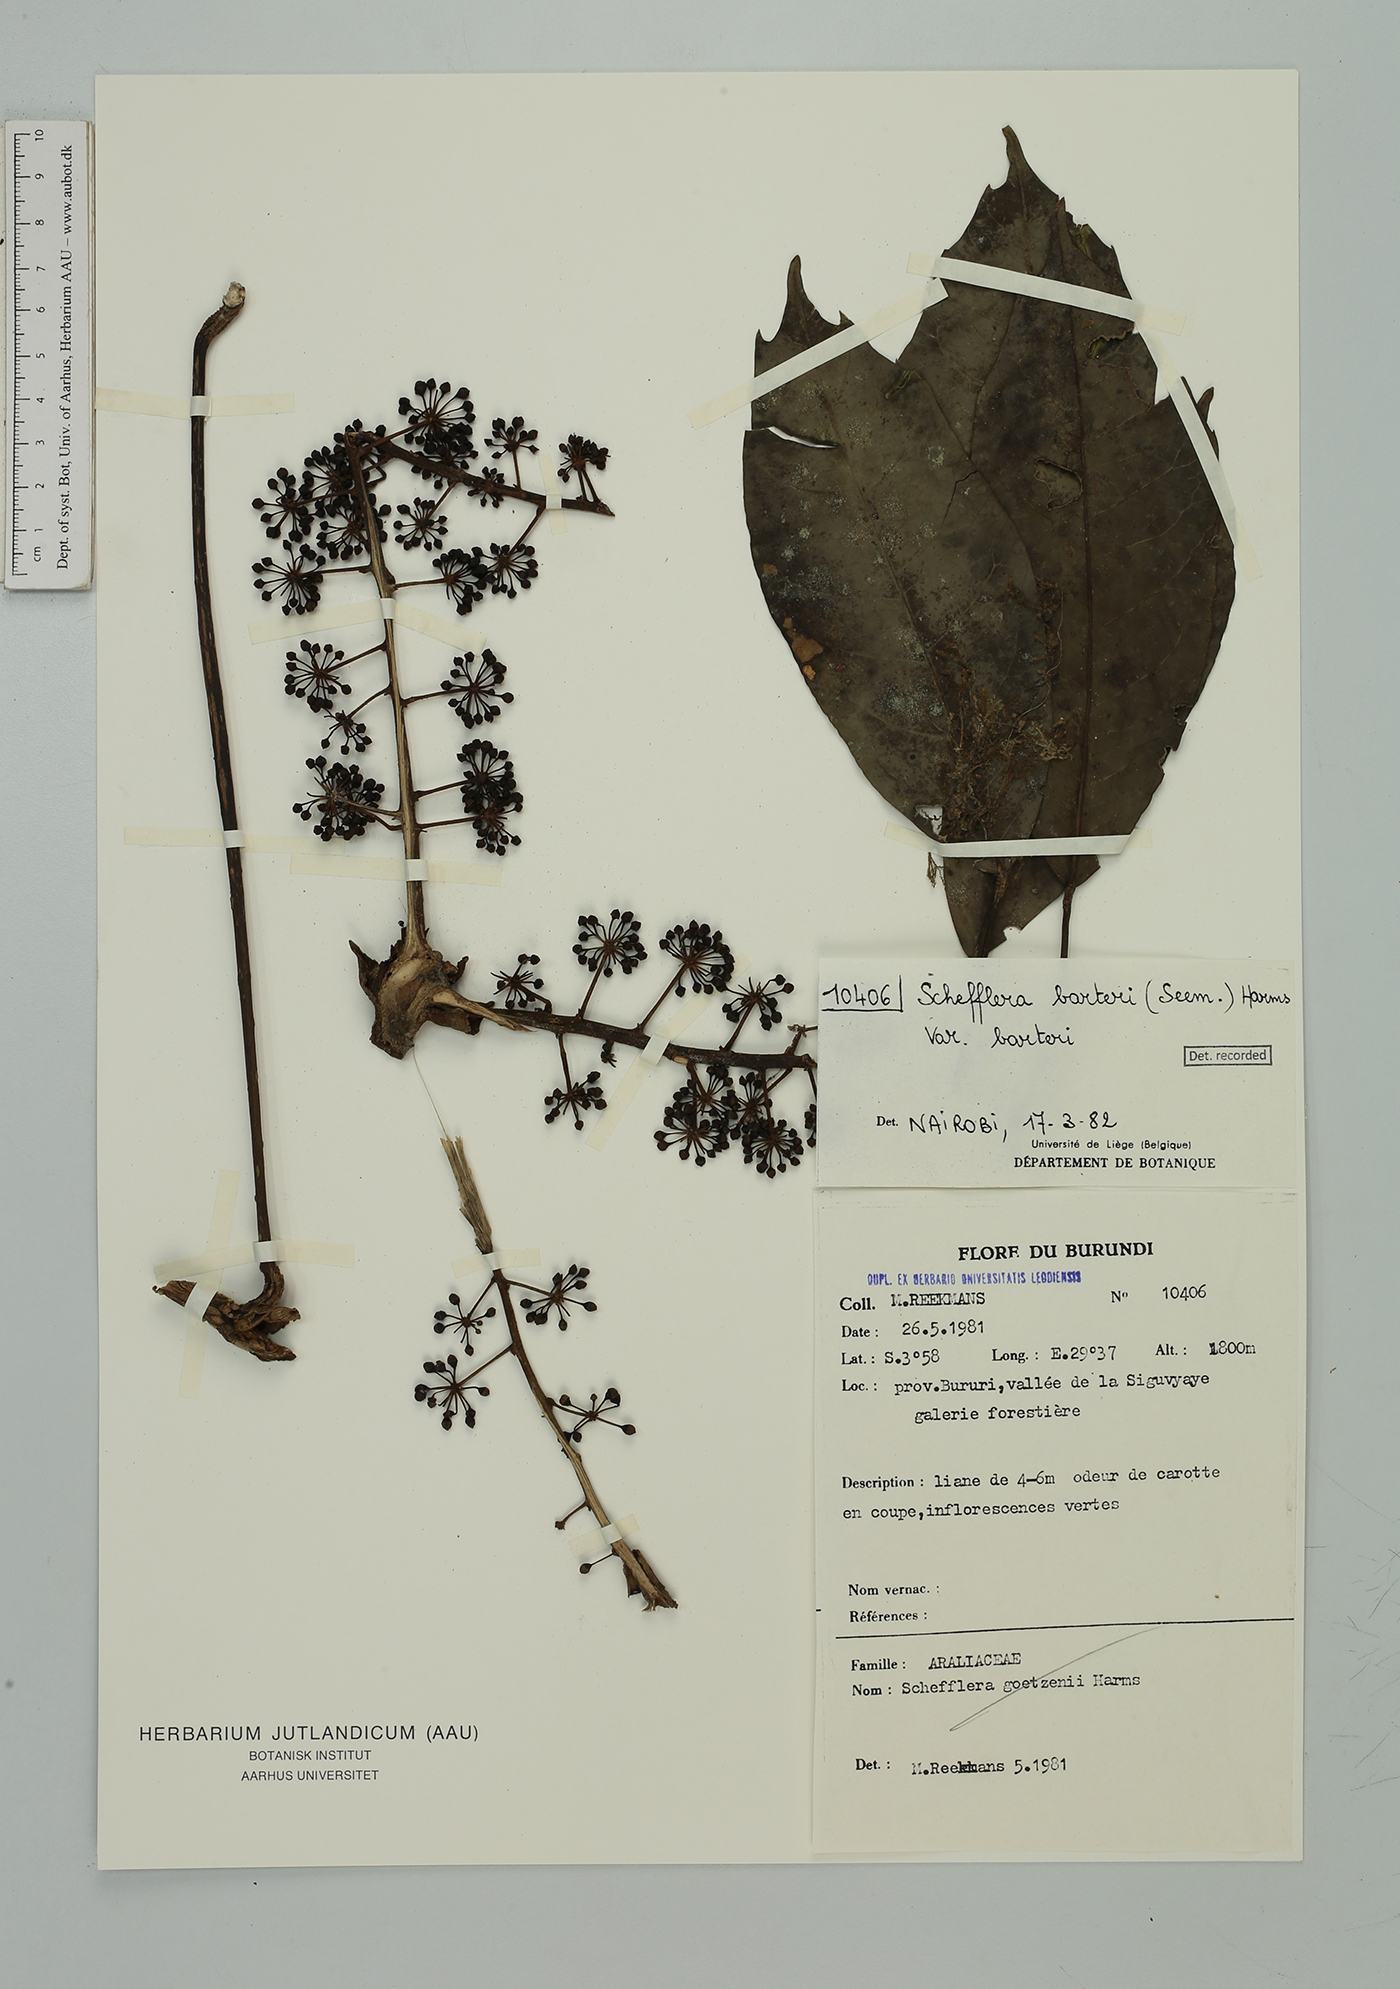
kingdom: Plantae
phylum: Tracheophyta
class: Magnoliopsida
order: Apiales
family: Araliaceae
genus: Astropanax
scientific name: Astropanax barteri
